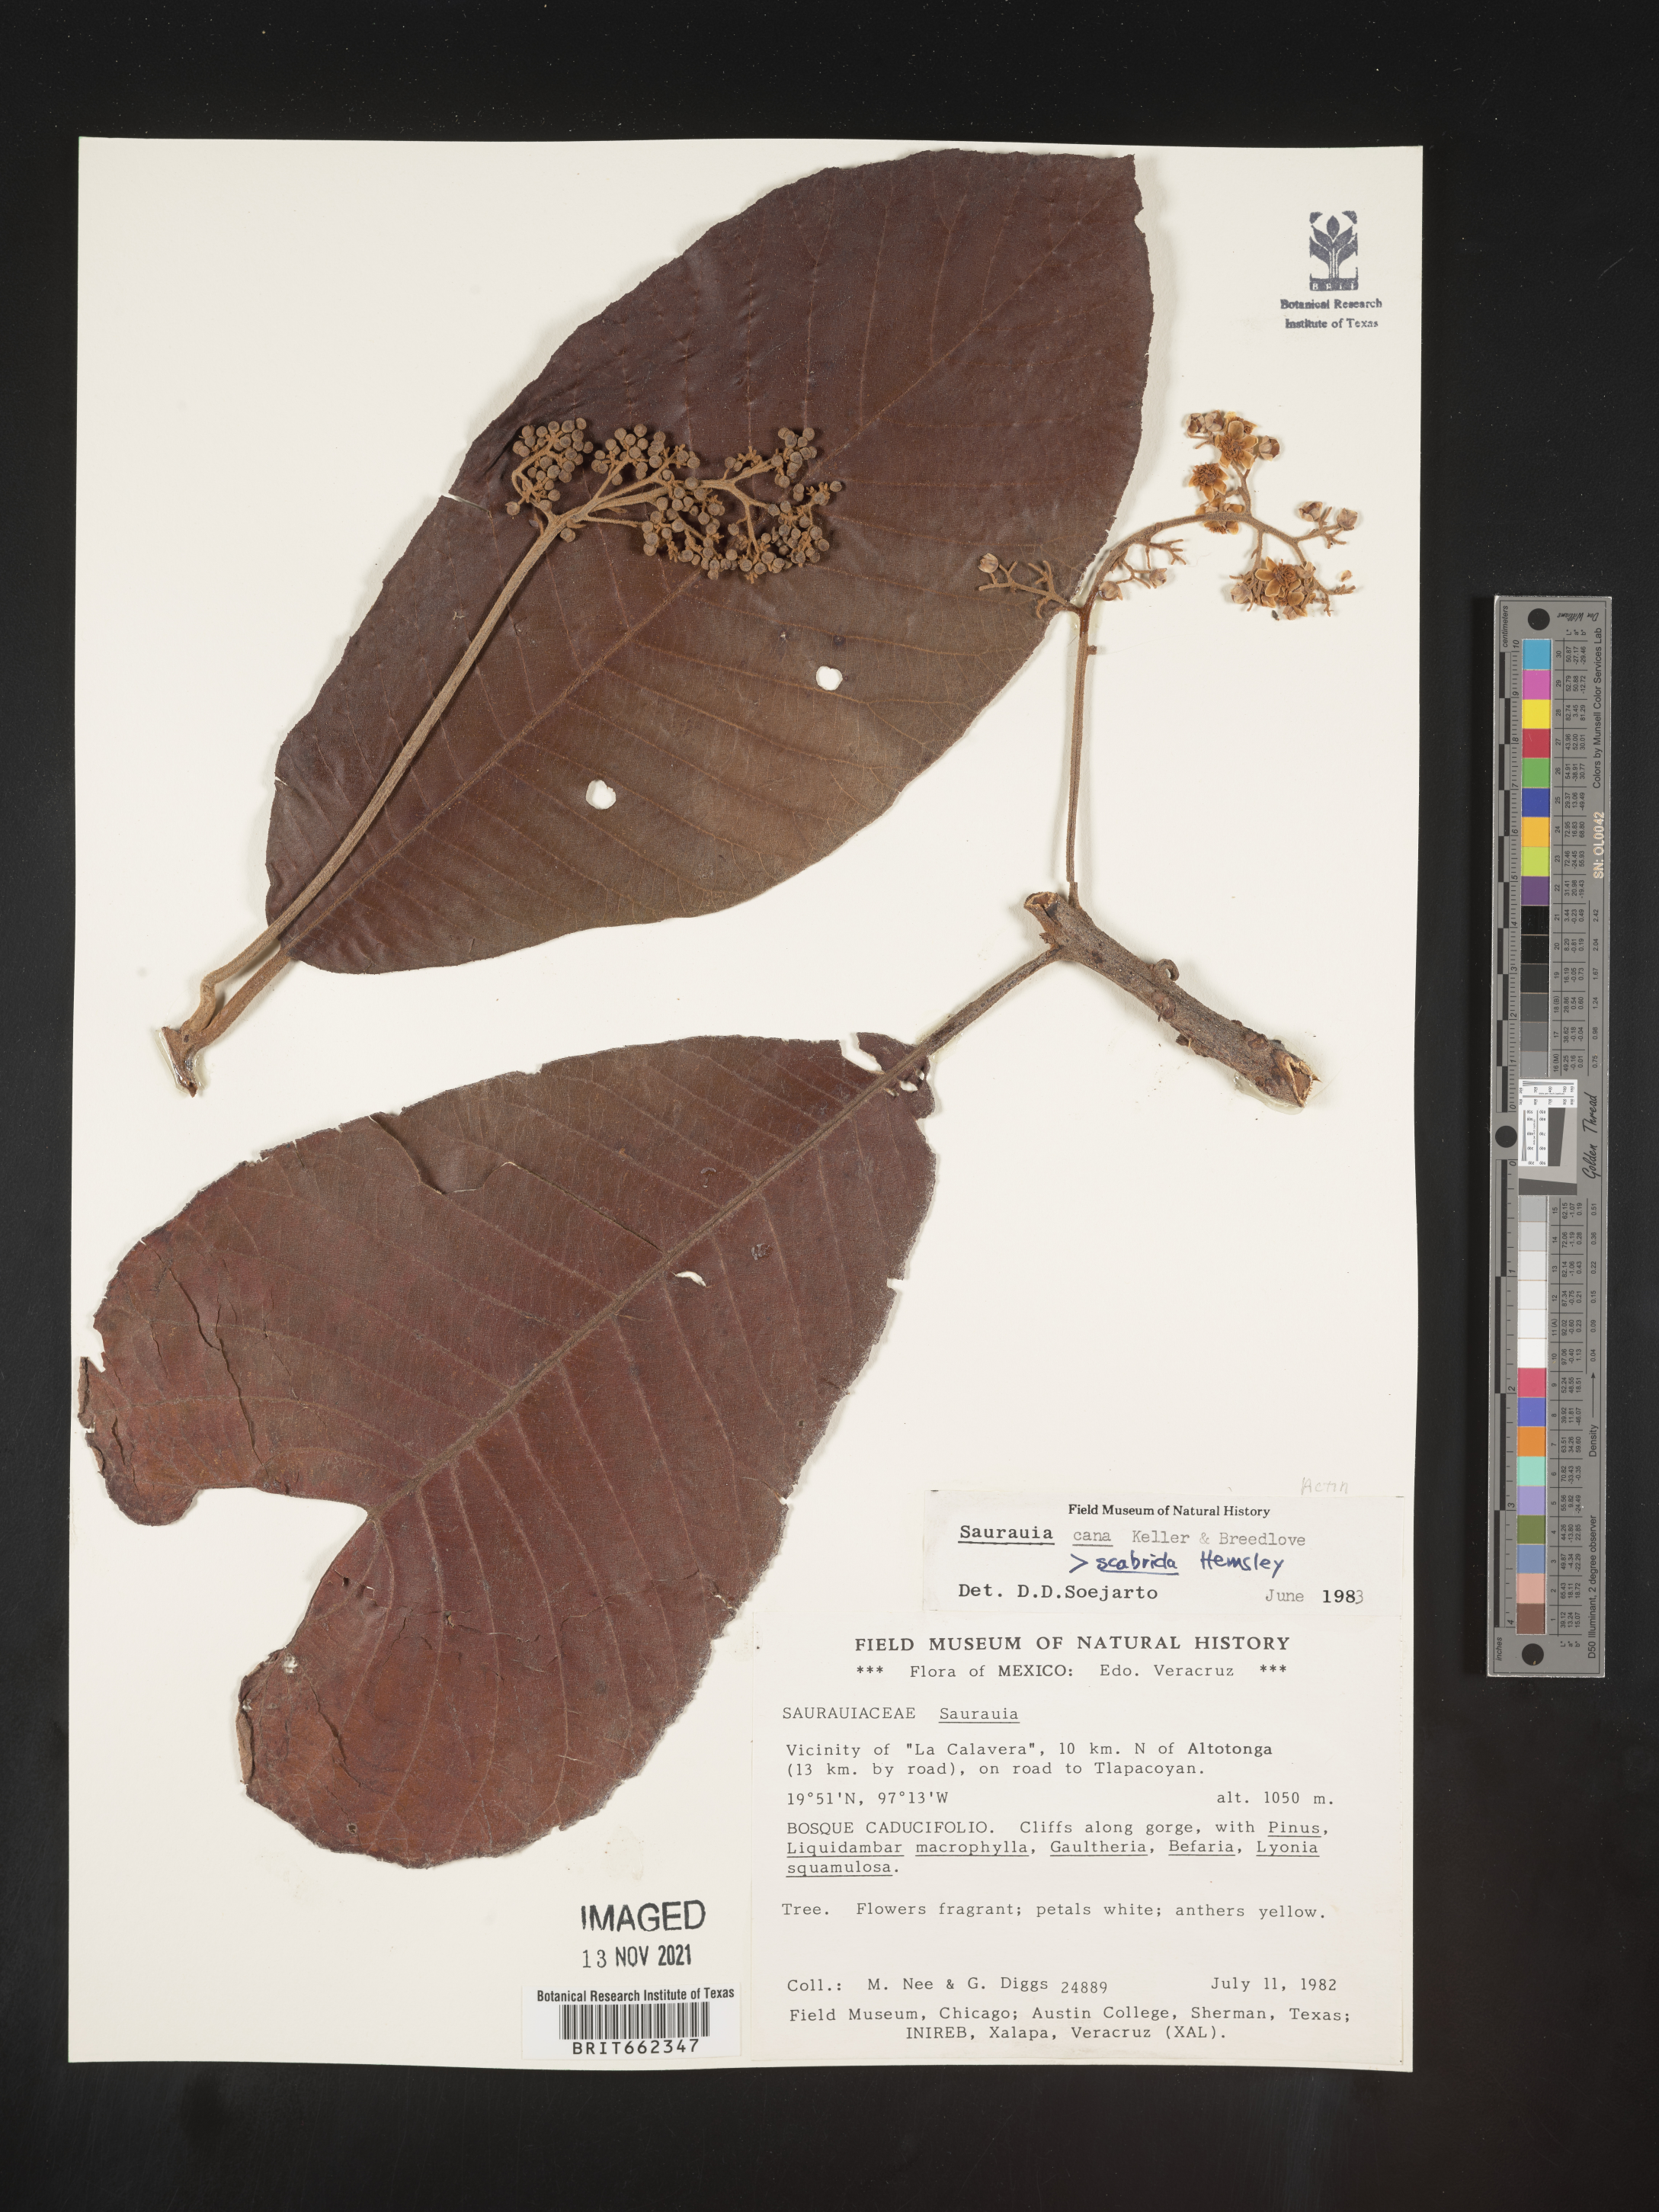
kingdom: Plantae
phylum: Tracheophyta
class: Magnoliopsida
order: Ericales
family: Actinidiaceae
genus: Saurauia
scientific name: Saurauia
